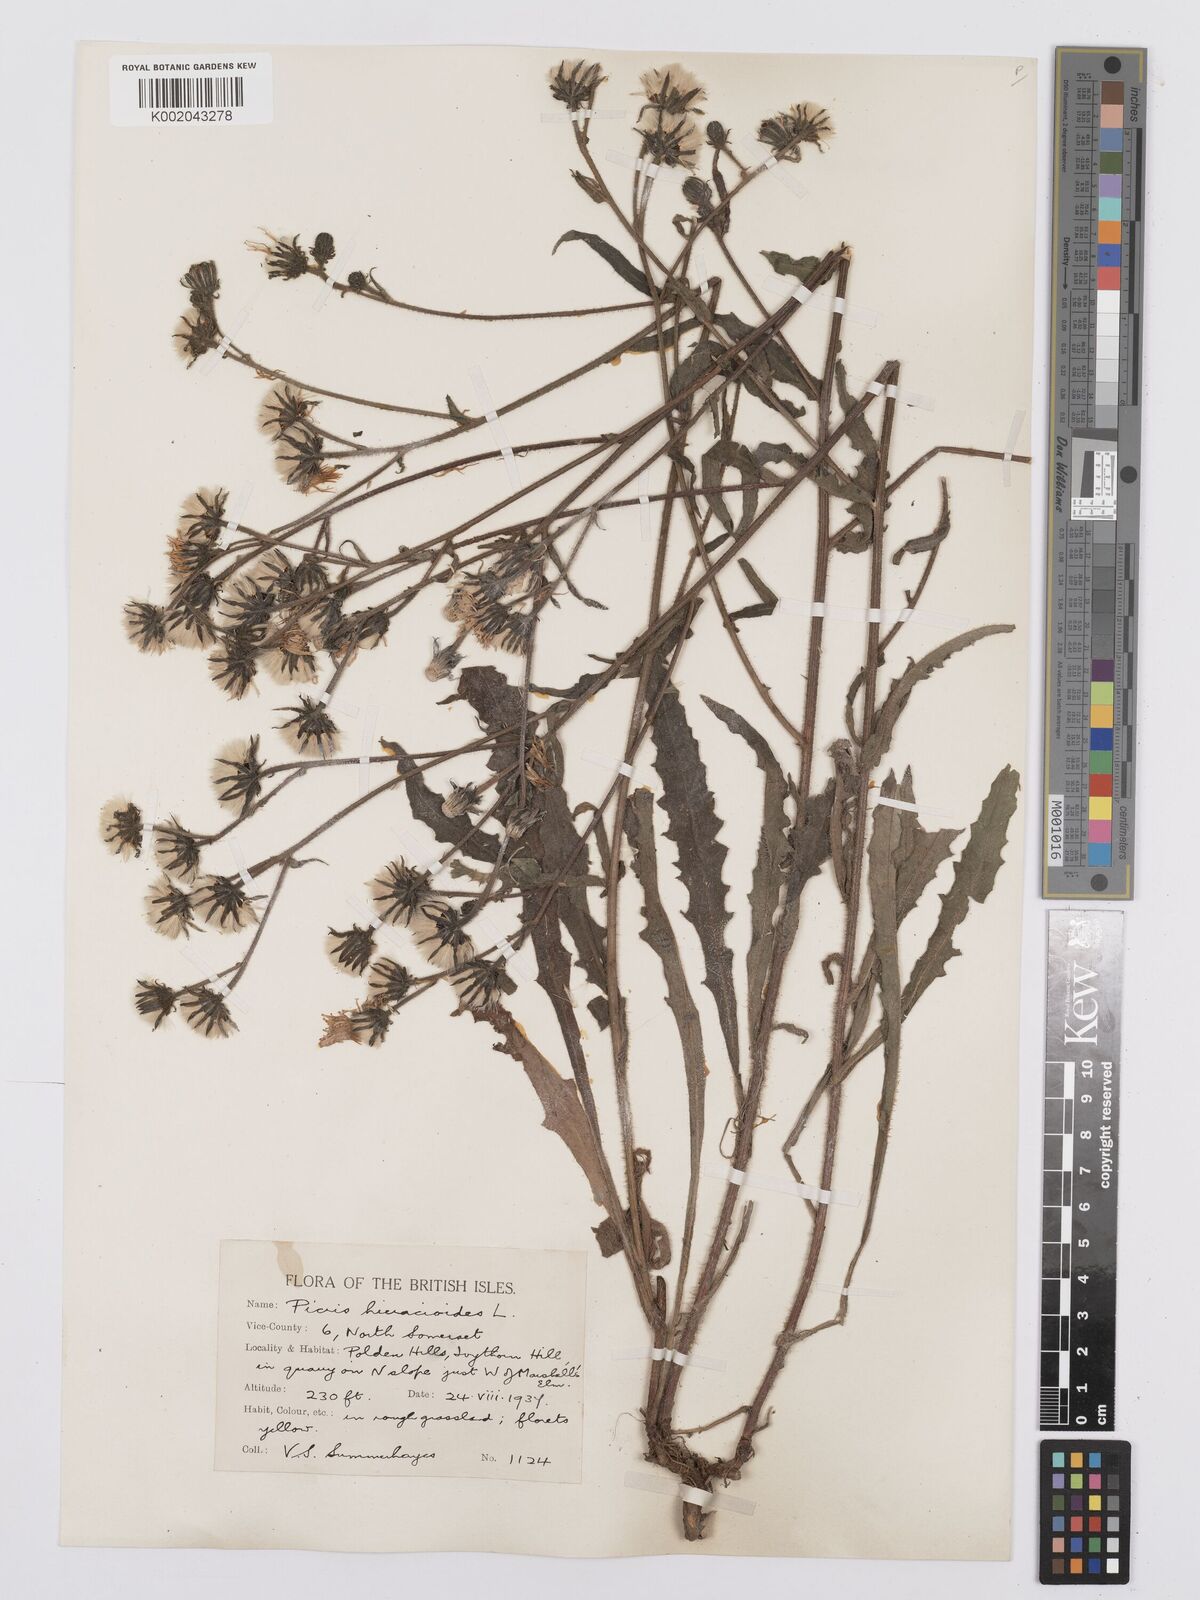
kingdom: Plantae
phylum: Tracheophyta
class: Magnoliopsida
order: Asterales
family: Asteraceae
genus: Picris
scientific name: Picris hieracioides
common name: Hawkweed oxtongue
